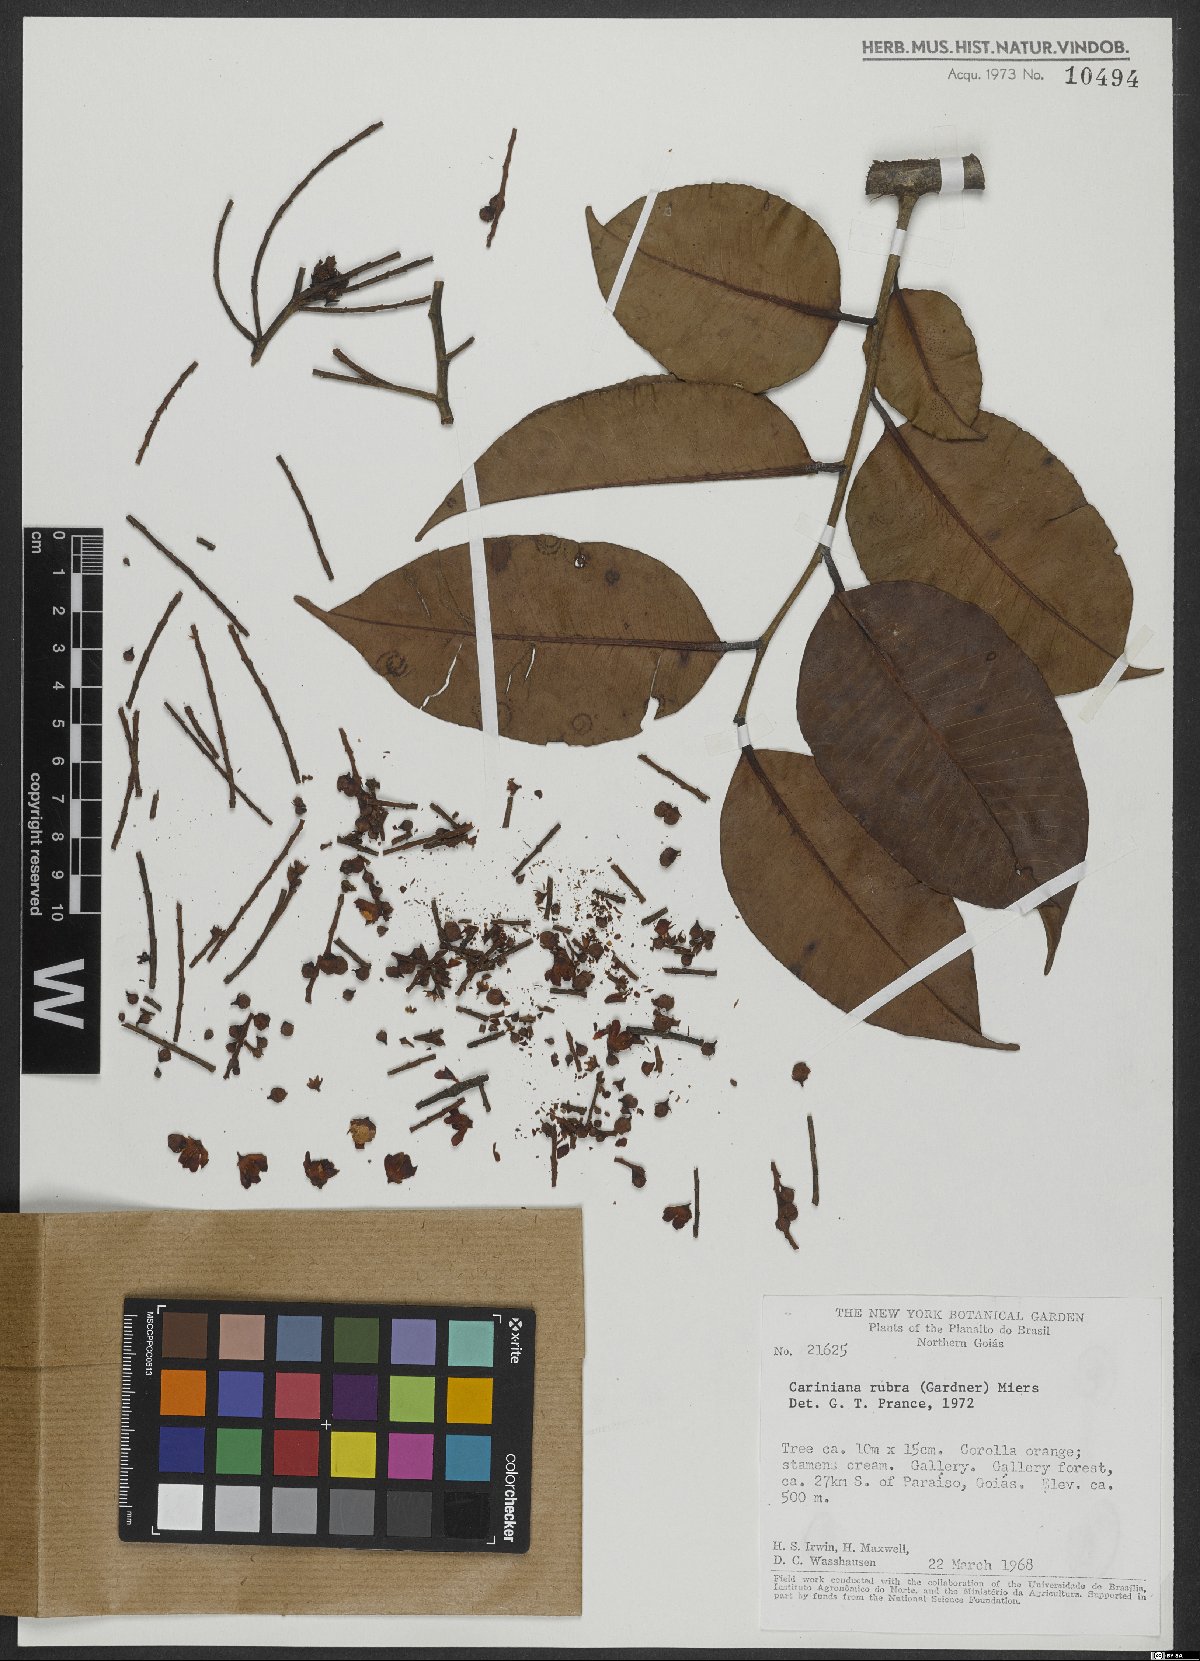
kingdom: Plantae
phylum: Tracheophyta
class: Magnoliopsida
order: Ericales
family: Lecythidaceae
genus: Cariniana
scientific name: Cariniana rubra
